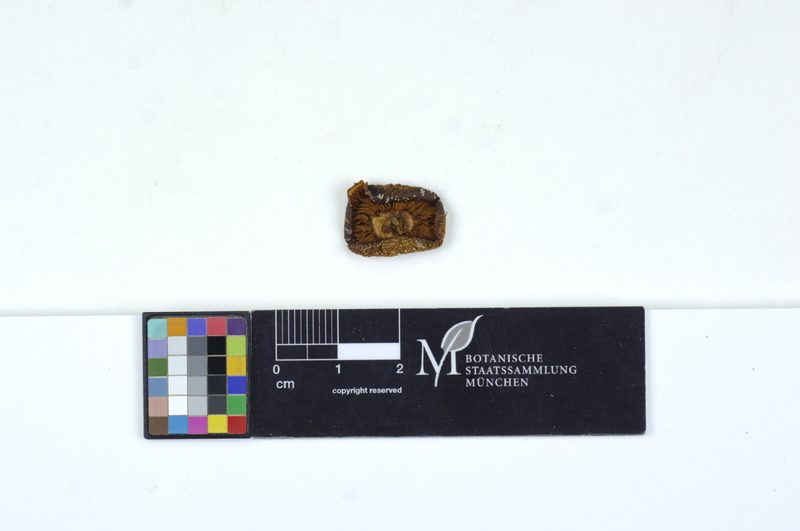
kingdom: Fungi
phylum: Basidiomycota
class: Agaricomycetes
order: Agaricales
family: Pluteaceae
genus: Pluteus
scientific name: Pluteus leoninus
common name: Lion shield
